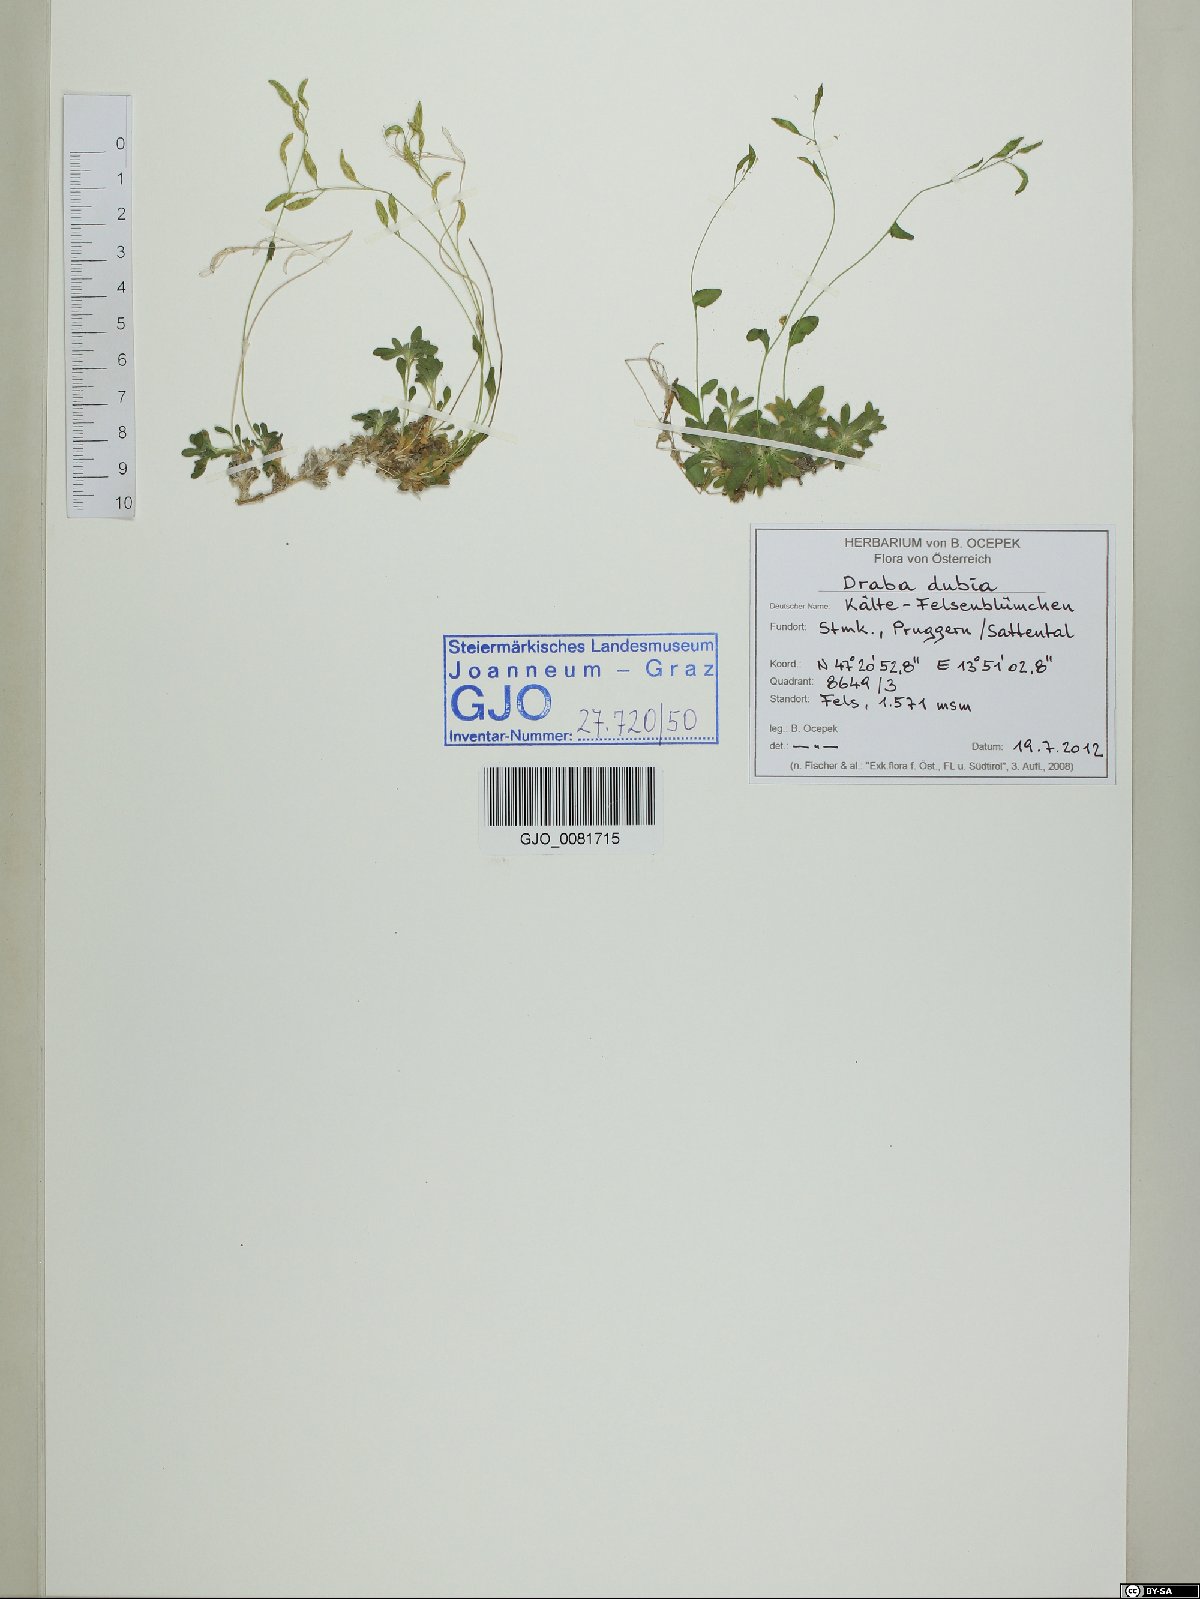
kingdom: Plantae
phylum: Tracheophyta
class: Magnoliopsida
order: Brassicales
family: Brassicaceae
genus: Draba
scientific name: Draba dubia
